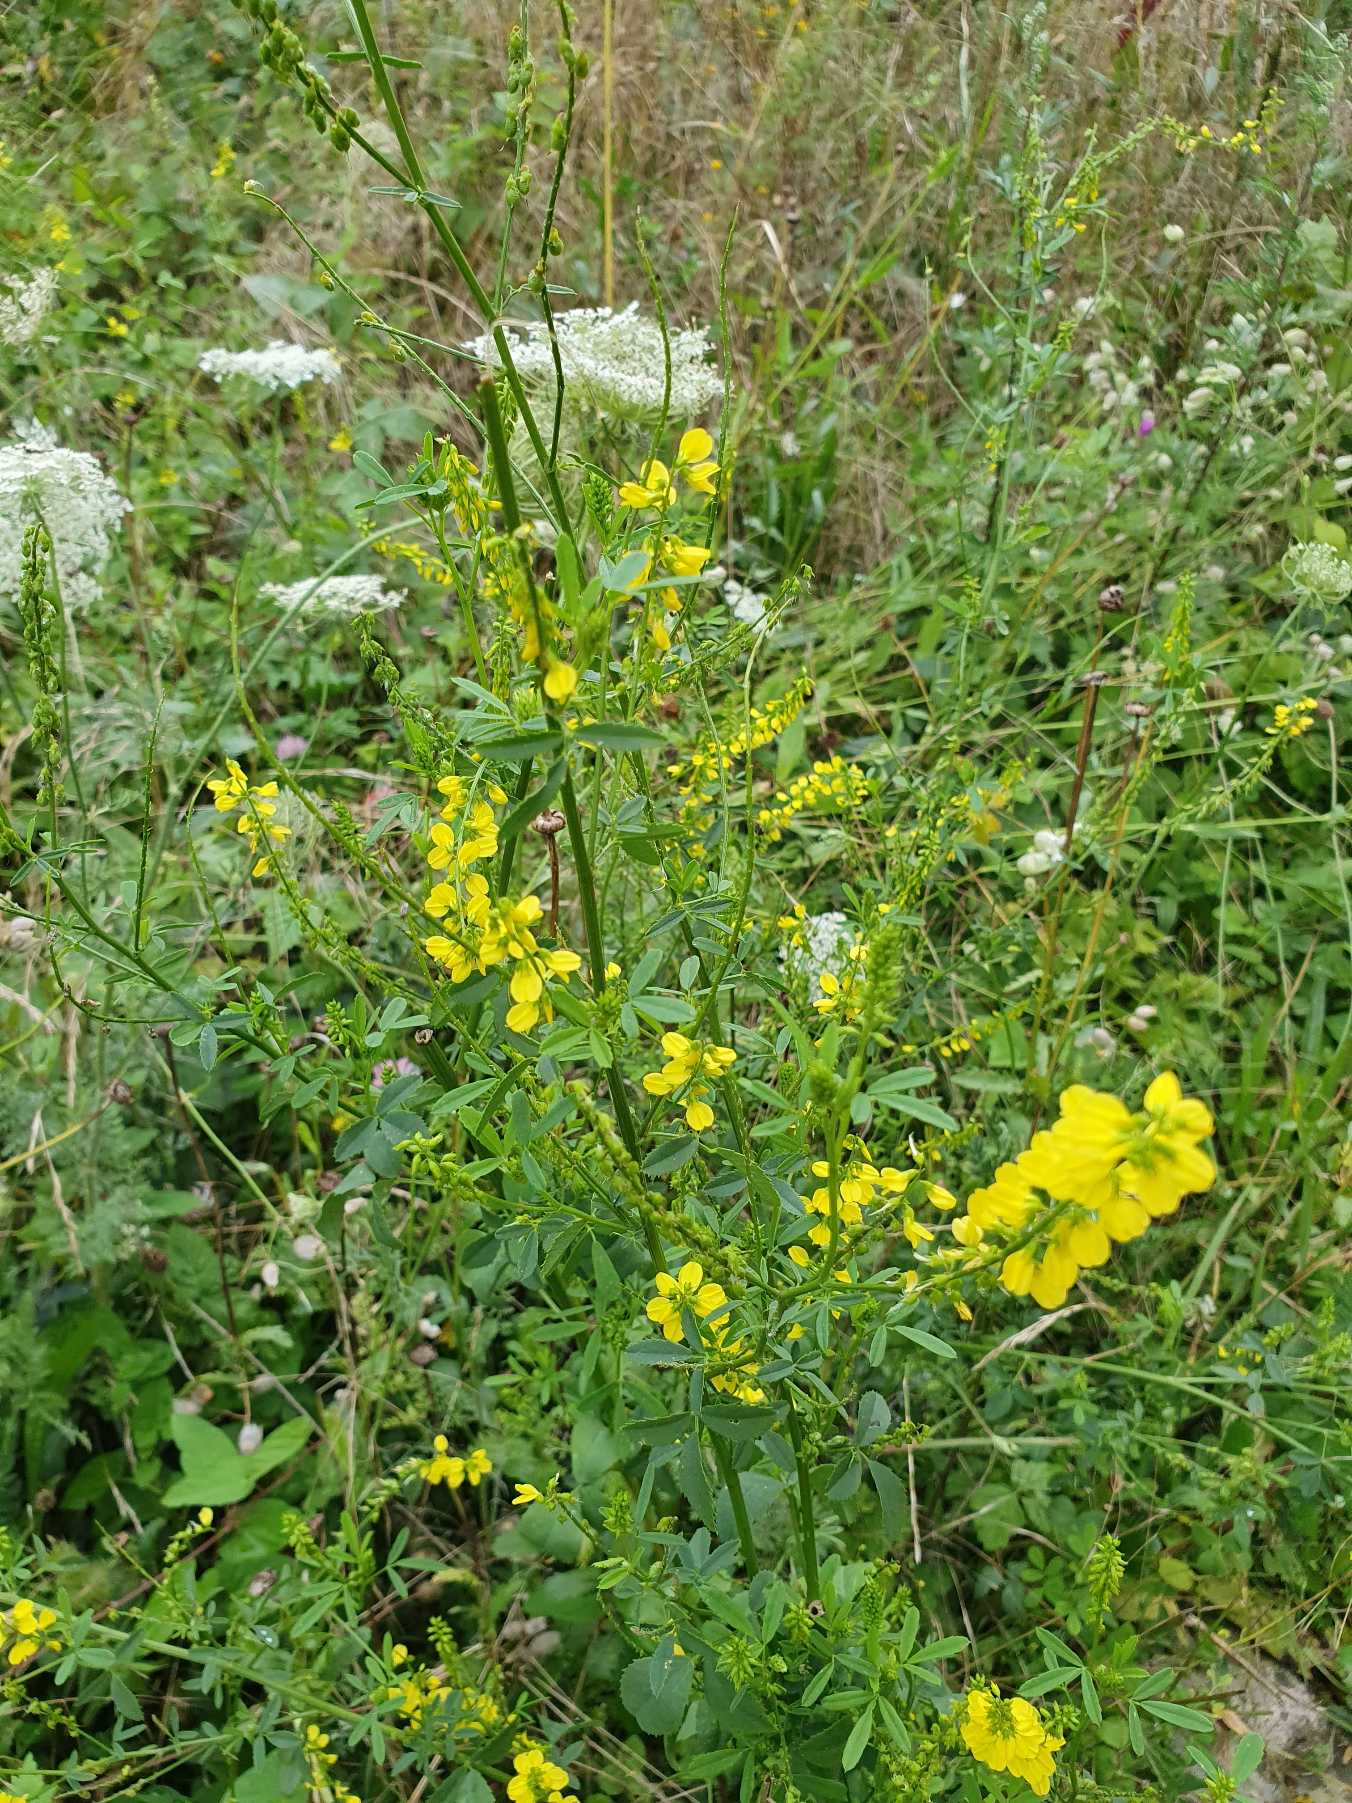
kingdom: Plantae
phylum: Tracheophyta
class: Magnoliopsida
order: Fabales
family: Fabaceae
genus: Melilotus
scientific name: Melilotus officinalis
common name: Mark-stenkløver
